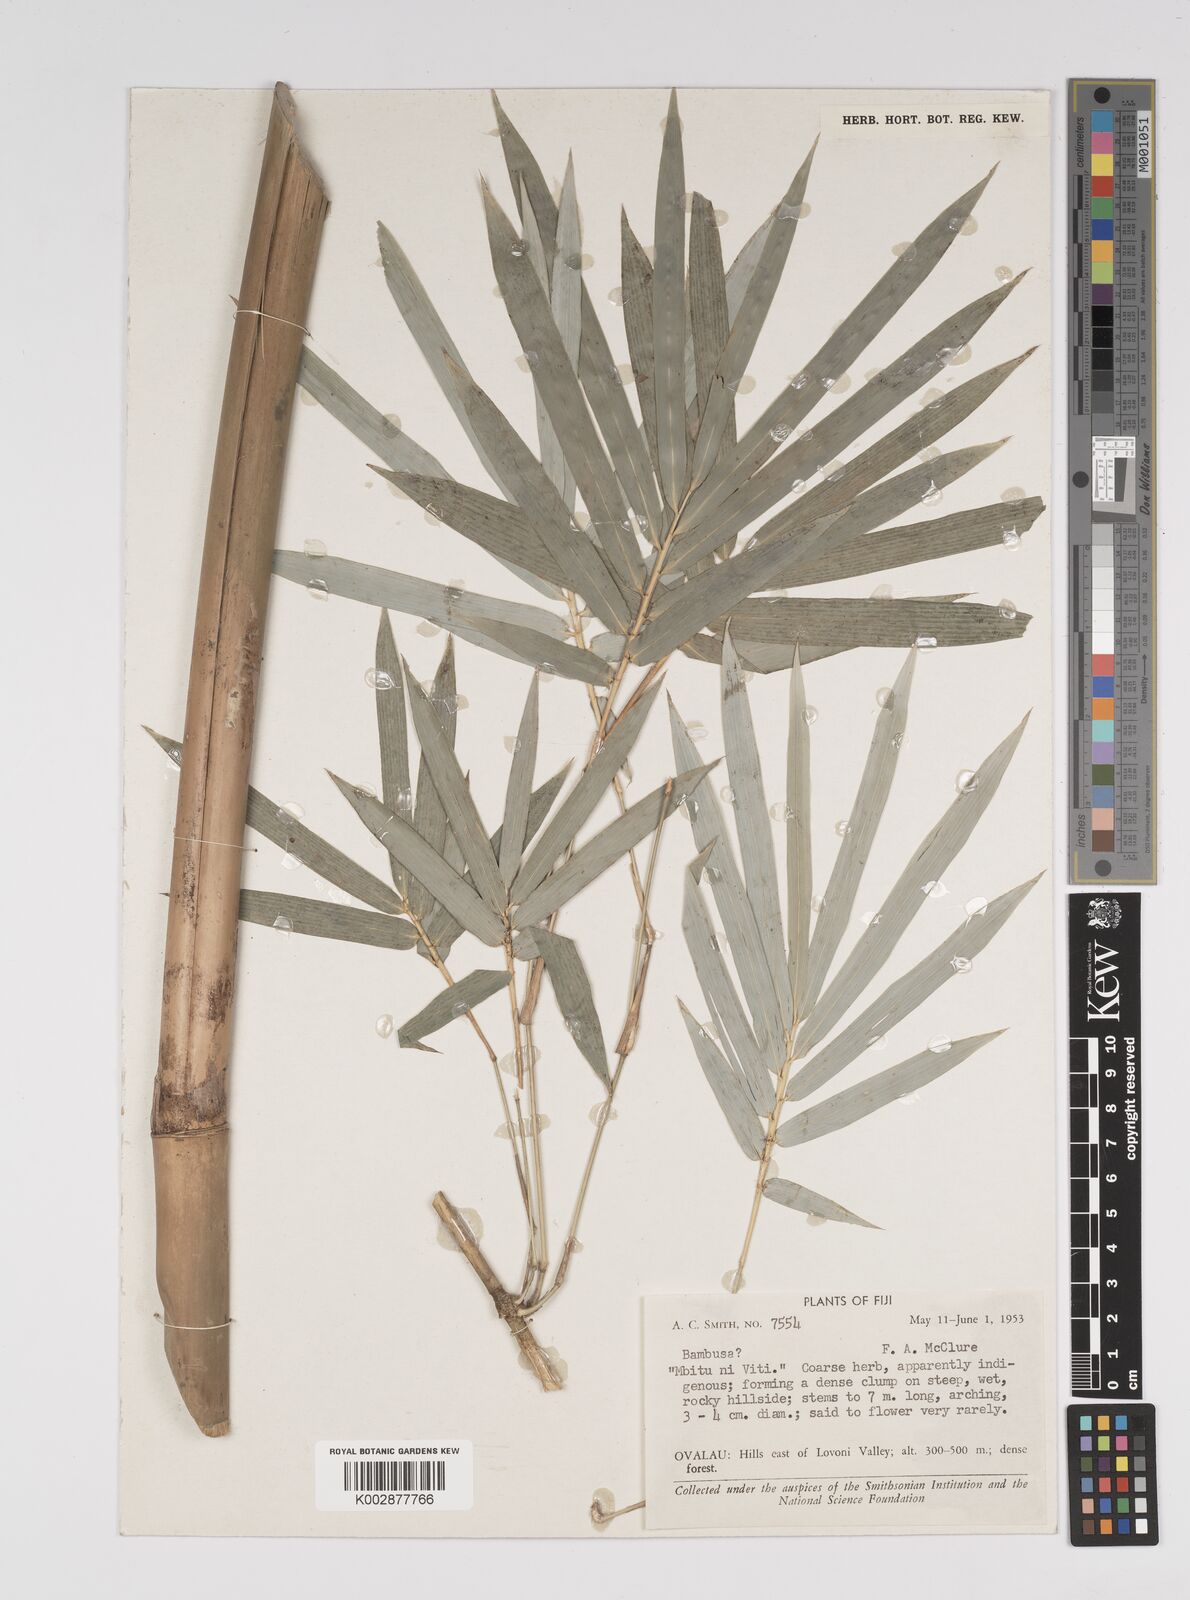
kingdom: Plantae
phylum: Tracheophyta
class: Liliopsida
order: Poales
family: Poaceae
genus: Bambusa
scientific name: Bambusa
